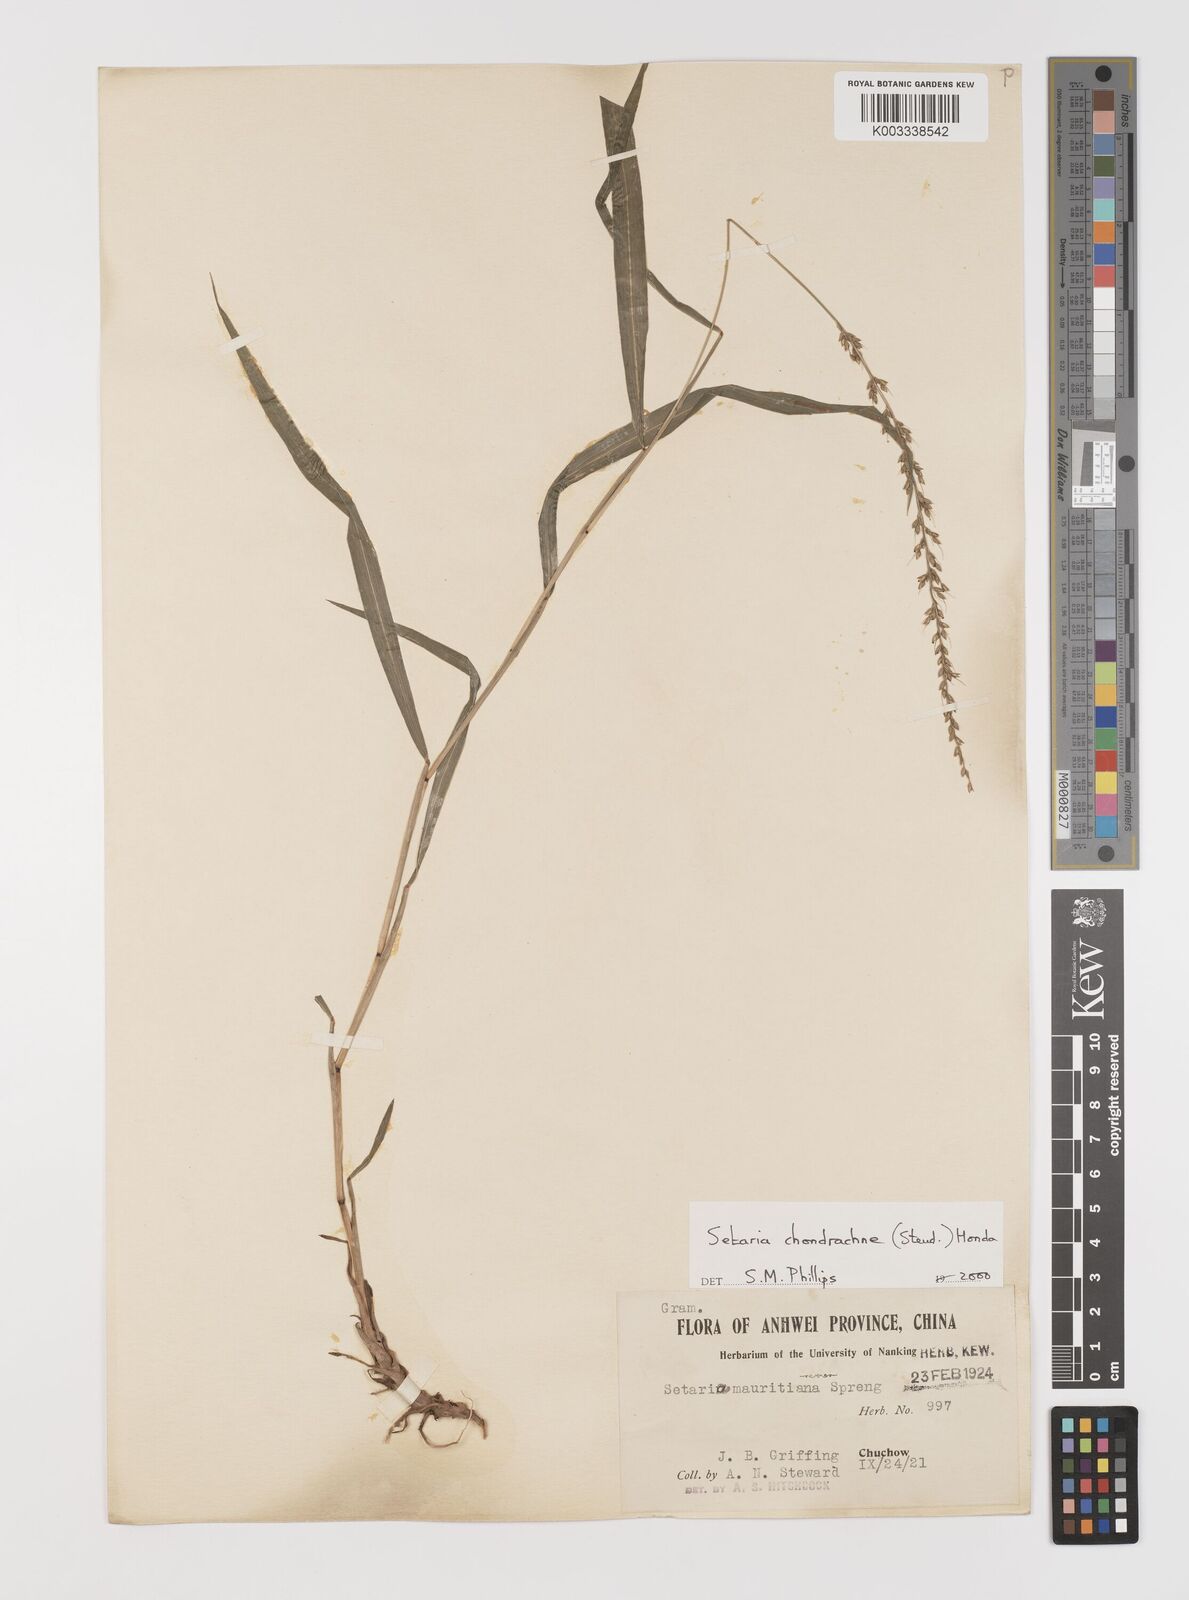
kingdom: Plantae
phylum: Tracheophyta
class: Liliopsida
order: Poales
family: Poaceae
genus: Setaria
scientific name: Setaria chondrachne
